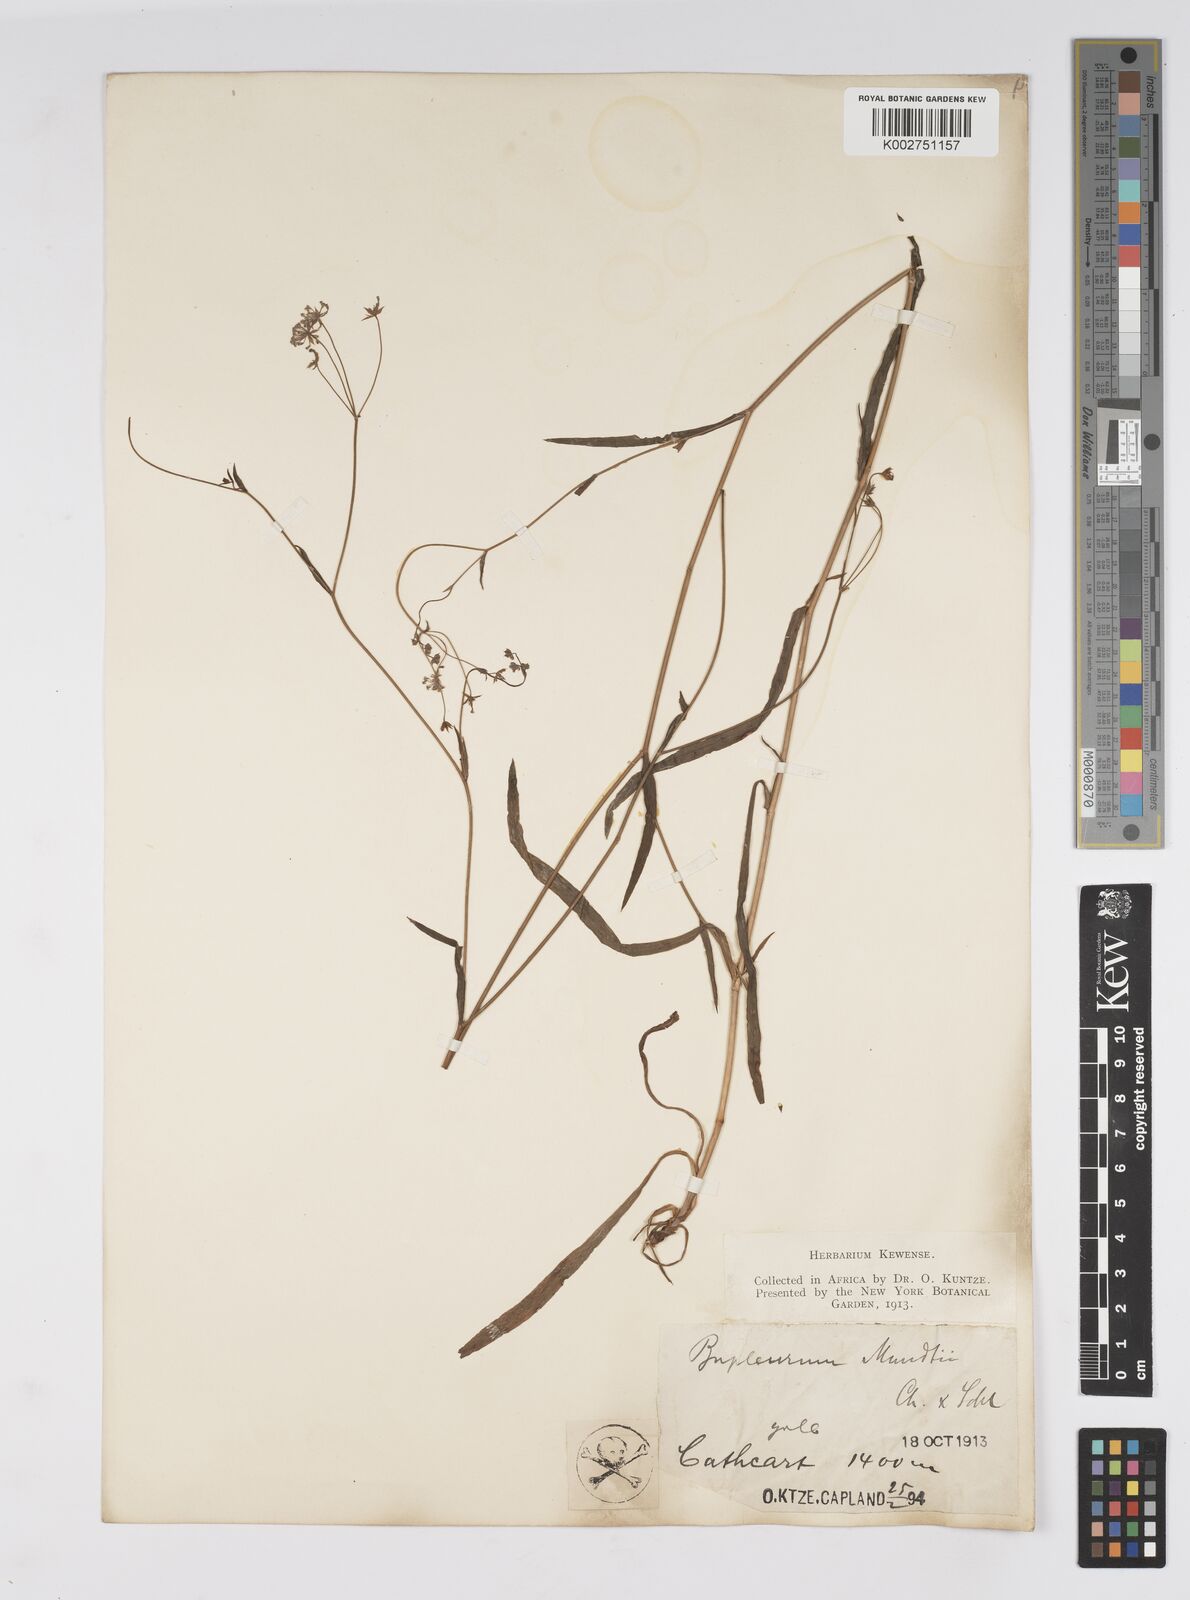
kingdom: Plantae
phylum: Tracheophyta
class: Magnoliopsida
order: Apiales
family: Apiaceae
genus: Bupleurum
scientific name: Bupleurum mundii
